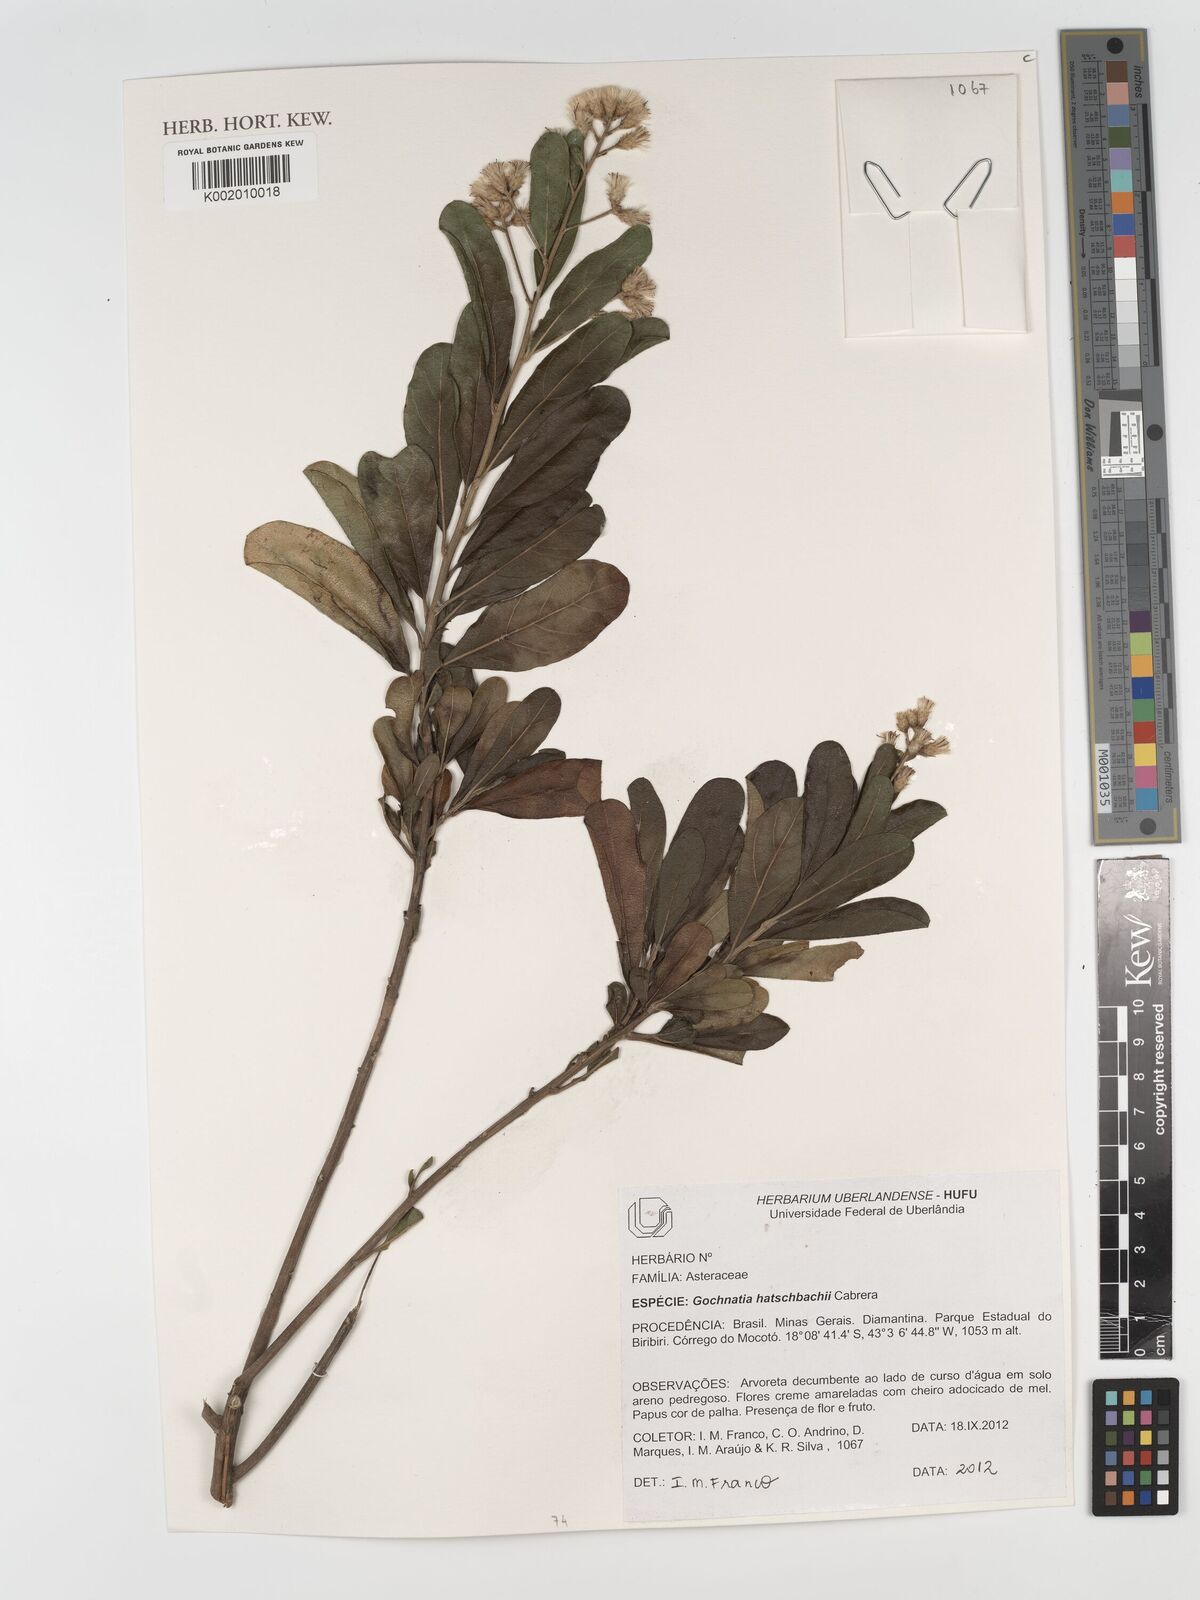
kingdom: Plantae
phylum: Tracheophyta
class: Magnoliopsida
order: Asterales
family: Asteraceae
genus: Moquiniastrum
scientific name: Moquiniastrum hatschbachii
